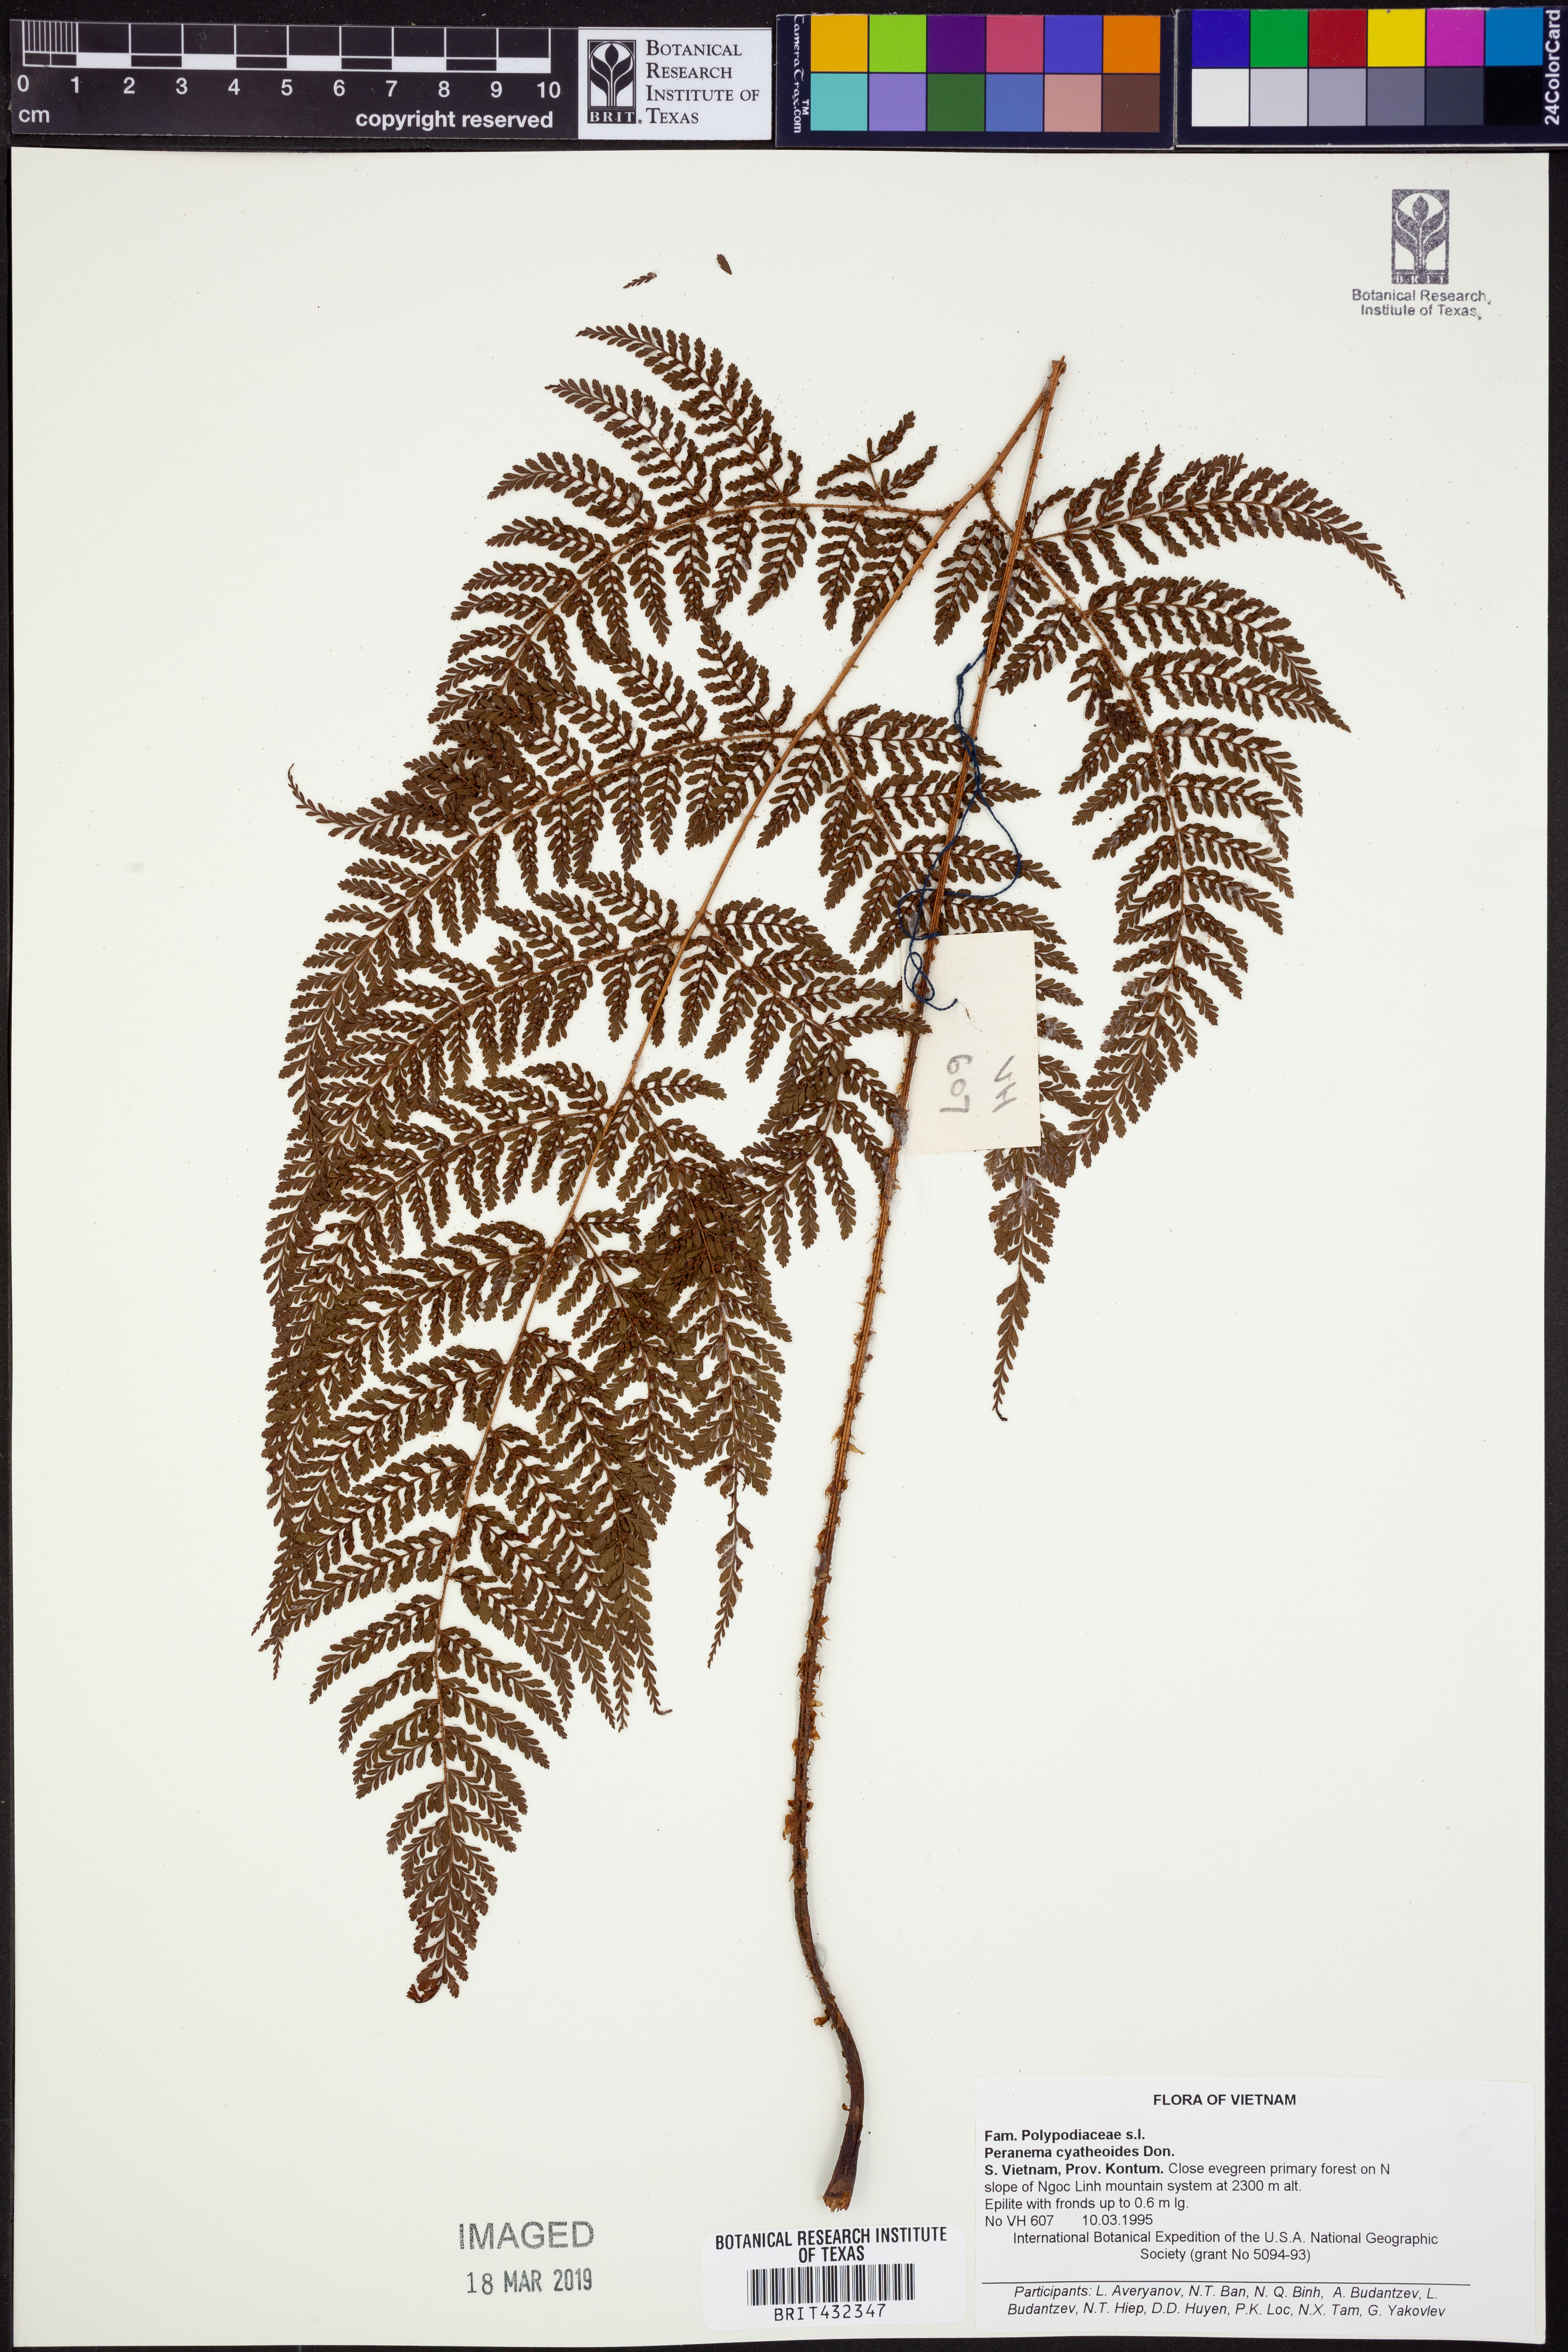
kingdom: Plantae
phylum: Tracheophyta
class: Polypodiopsida
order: Polypodiales
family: Dryopteridaceae
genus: Dryopteris
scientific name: Dryopteris peranema
